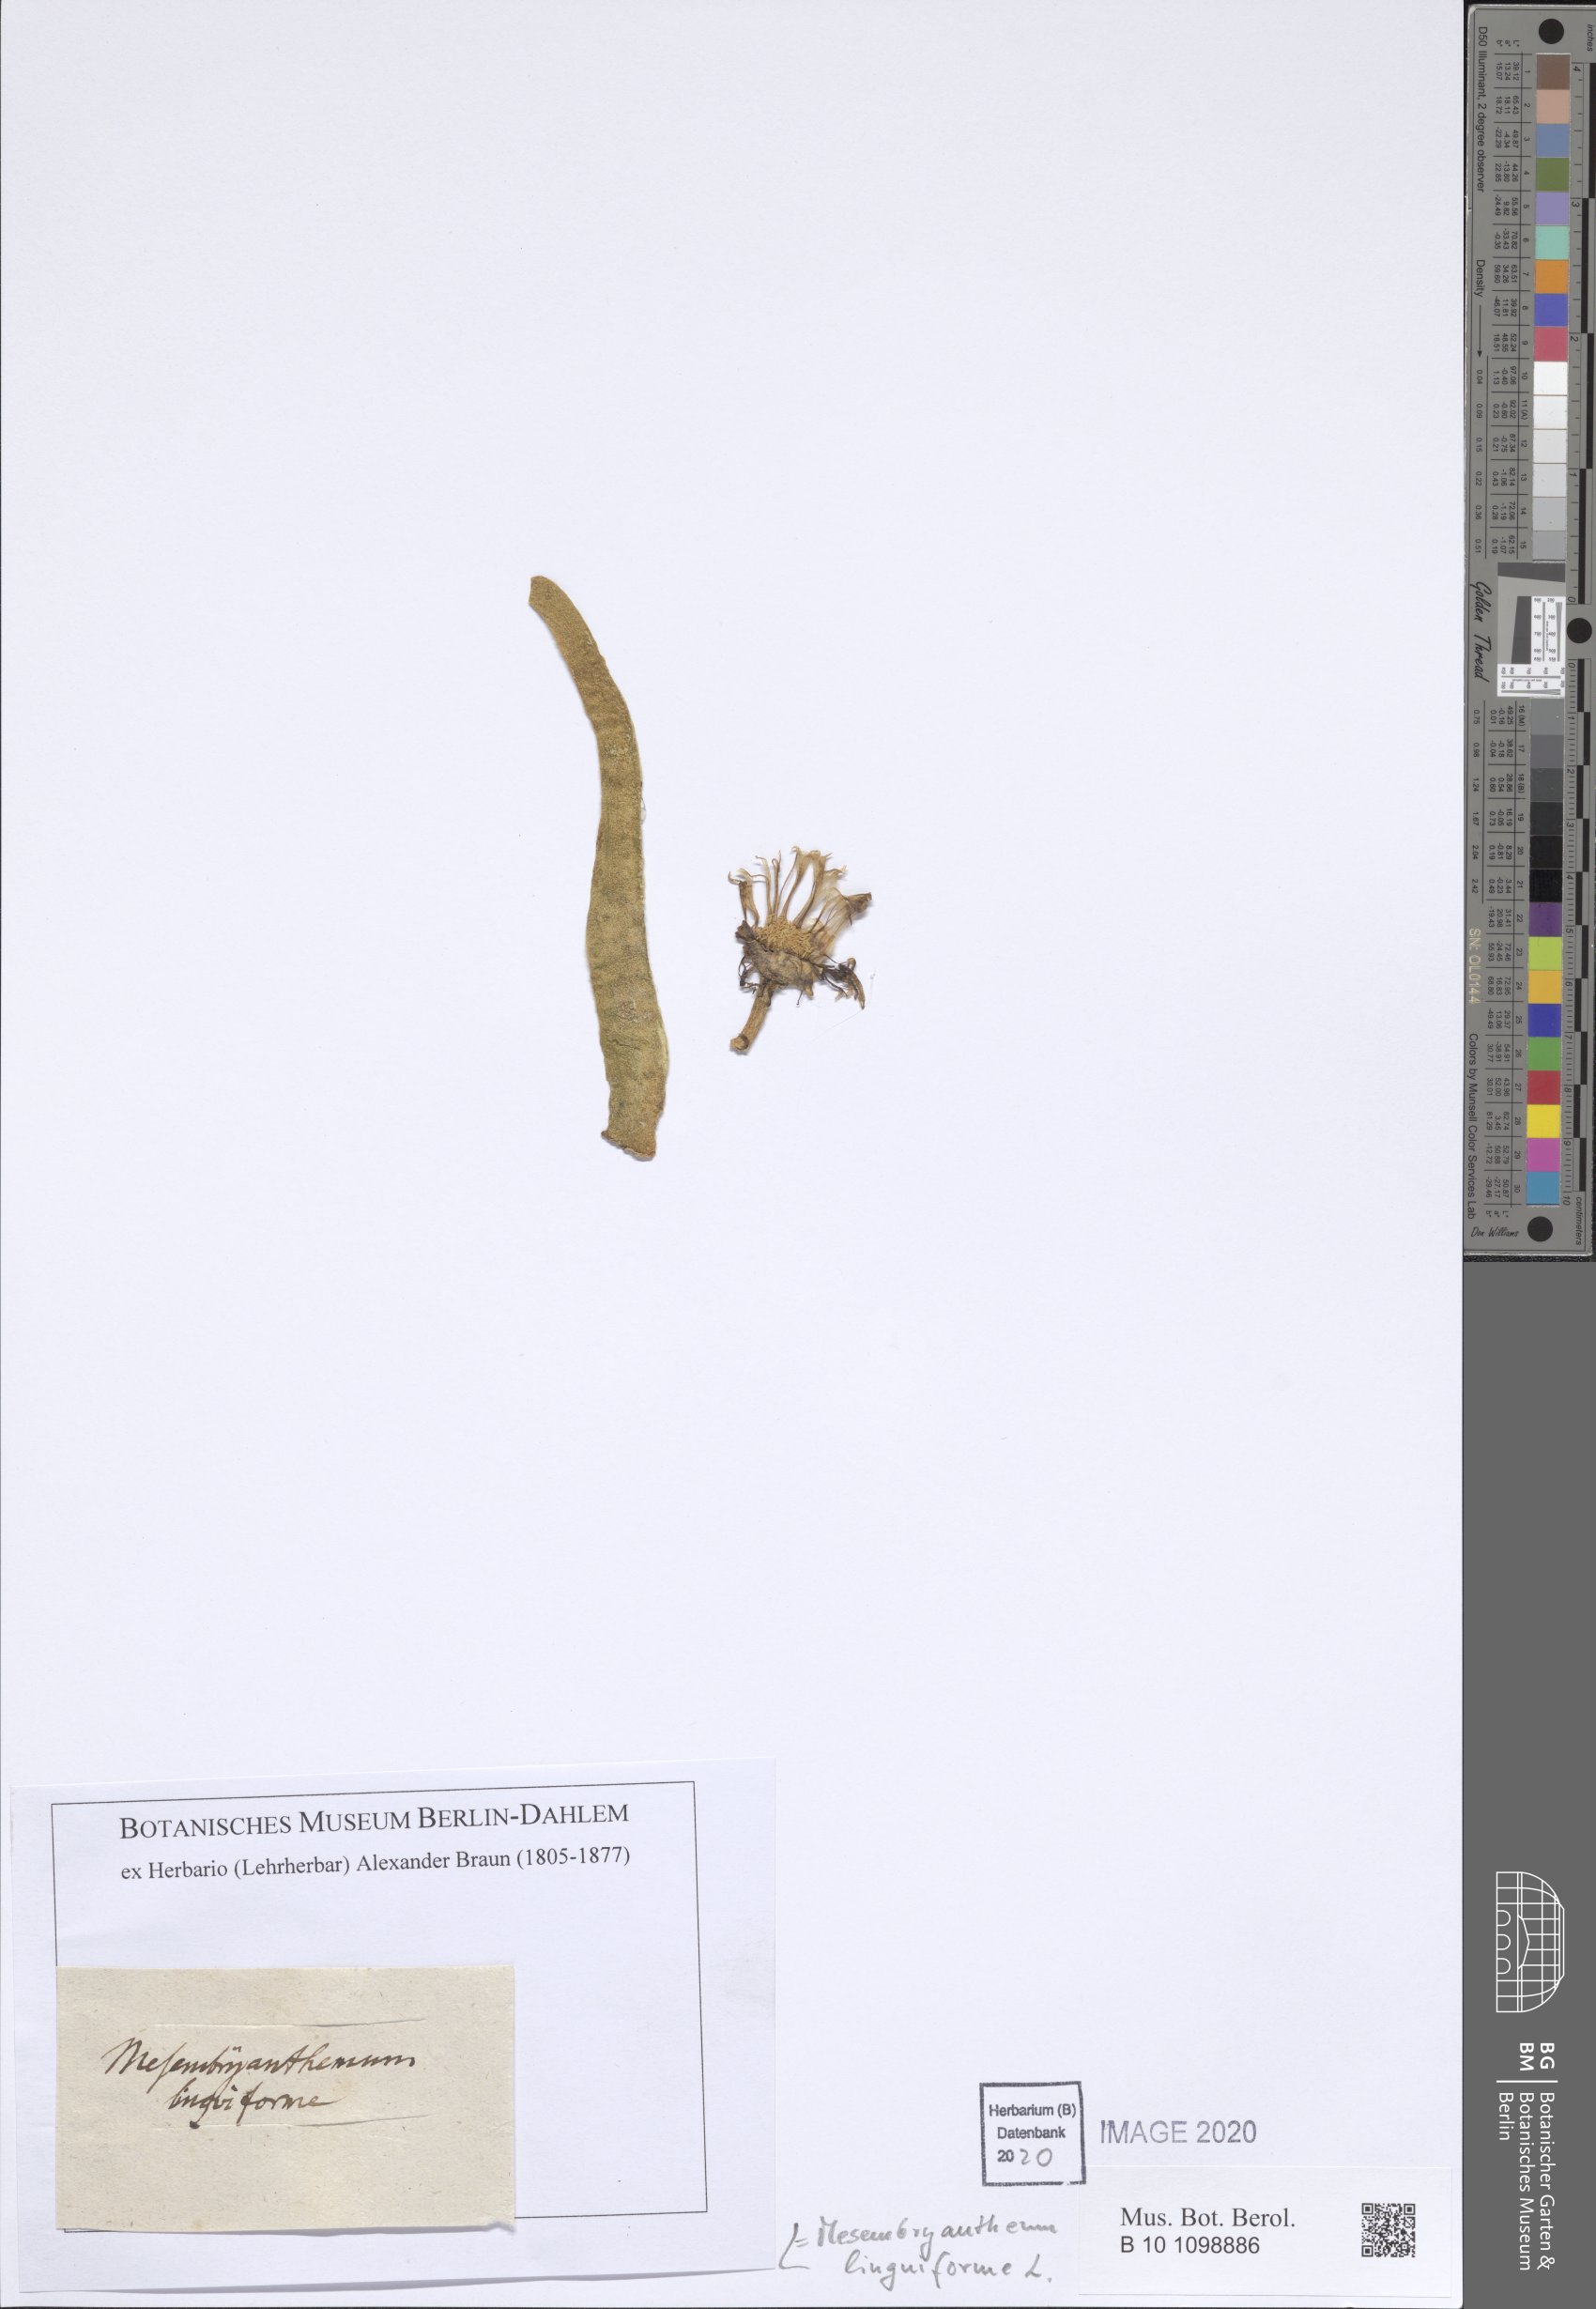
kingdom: Plantae
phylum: Tracheophyta
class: Magnoliopsida
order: Caryophyllales
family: Aizoaceae
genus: Glottiphyllum
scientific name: Glottiphyllum linguiforme
